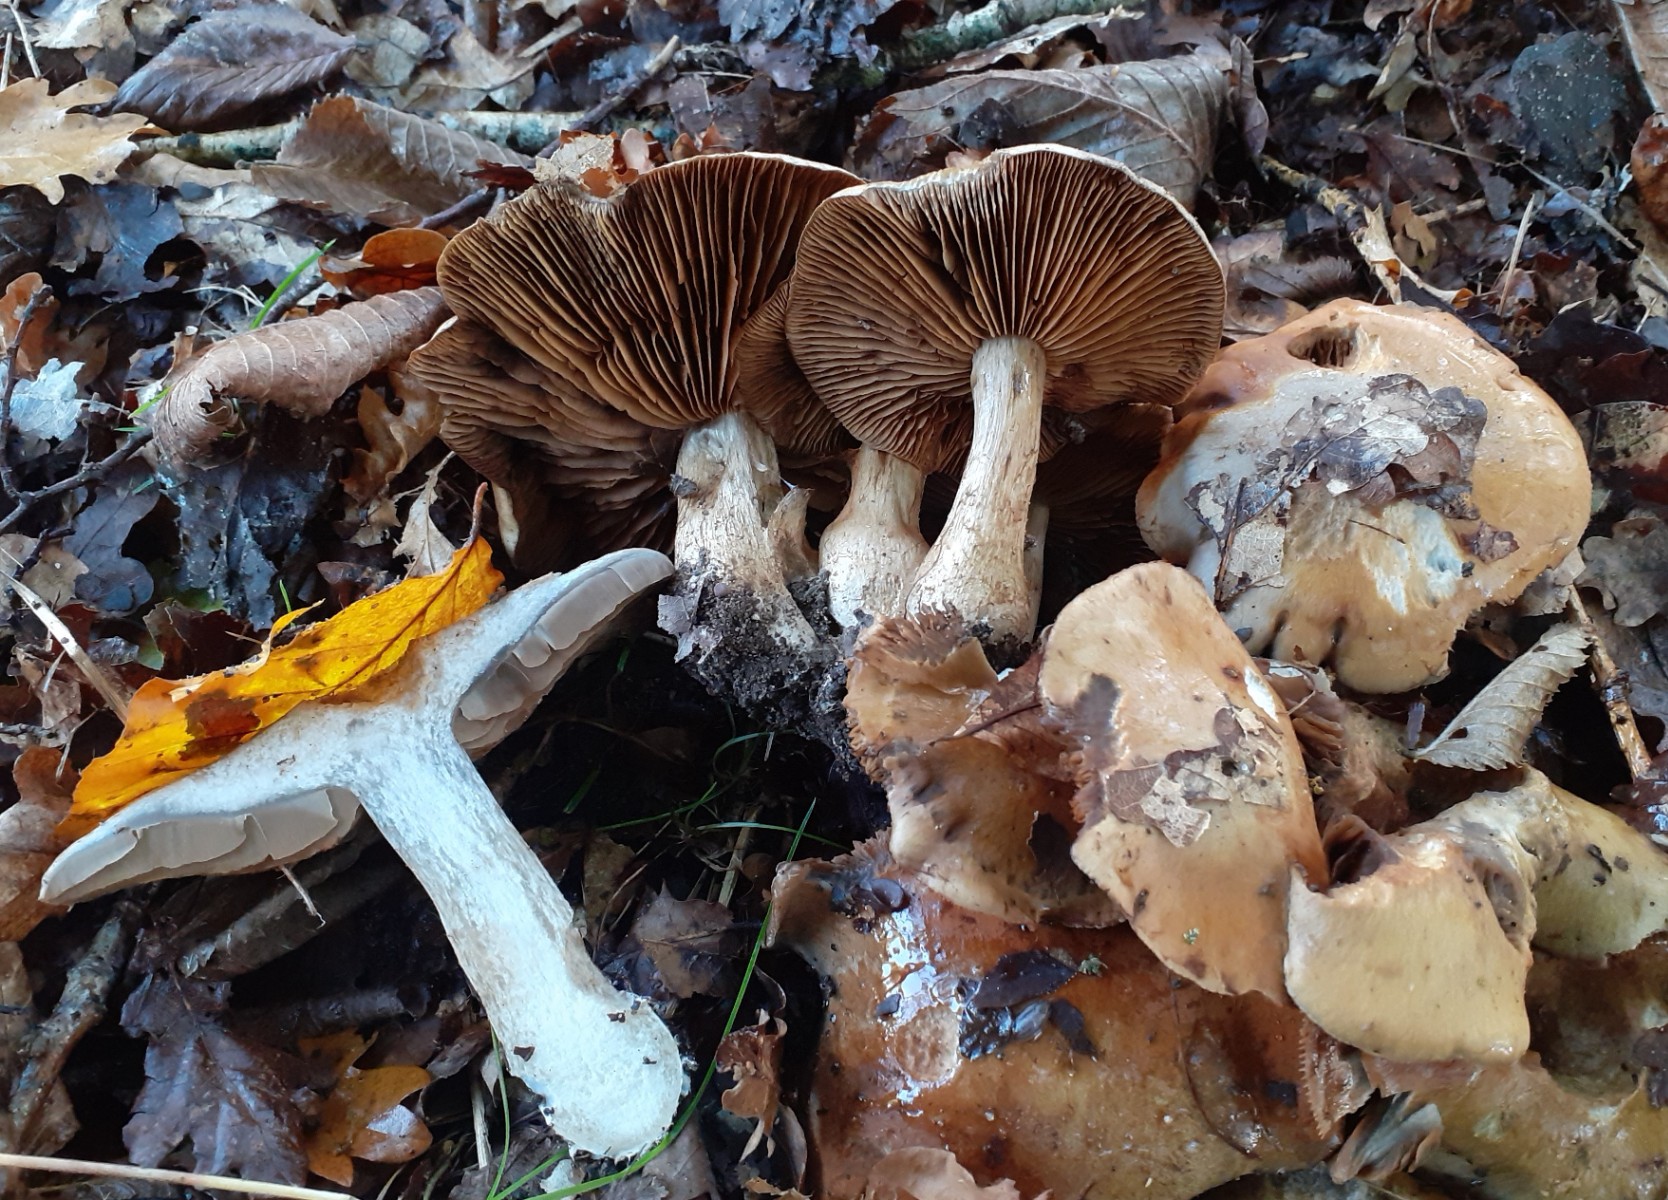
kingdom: Fungi
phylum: Basidiomycota
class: Agaricomycetes
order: Agaricales
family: Cortinariaceae
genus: Cortinarius
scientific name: Cortinarius infractus
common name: galde-slørhat
